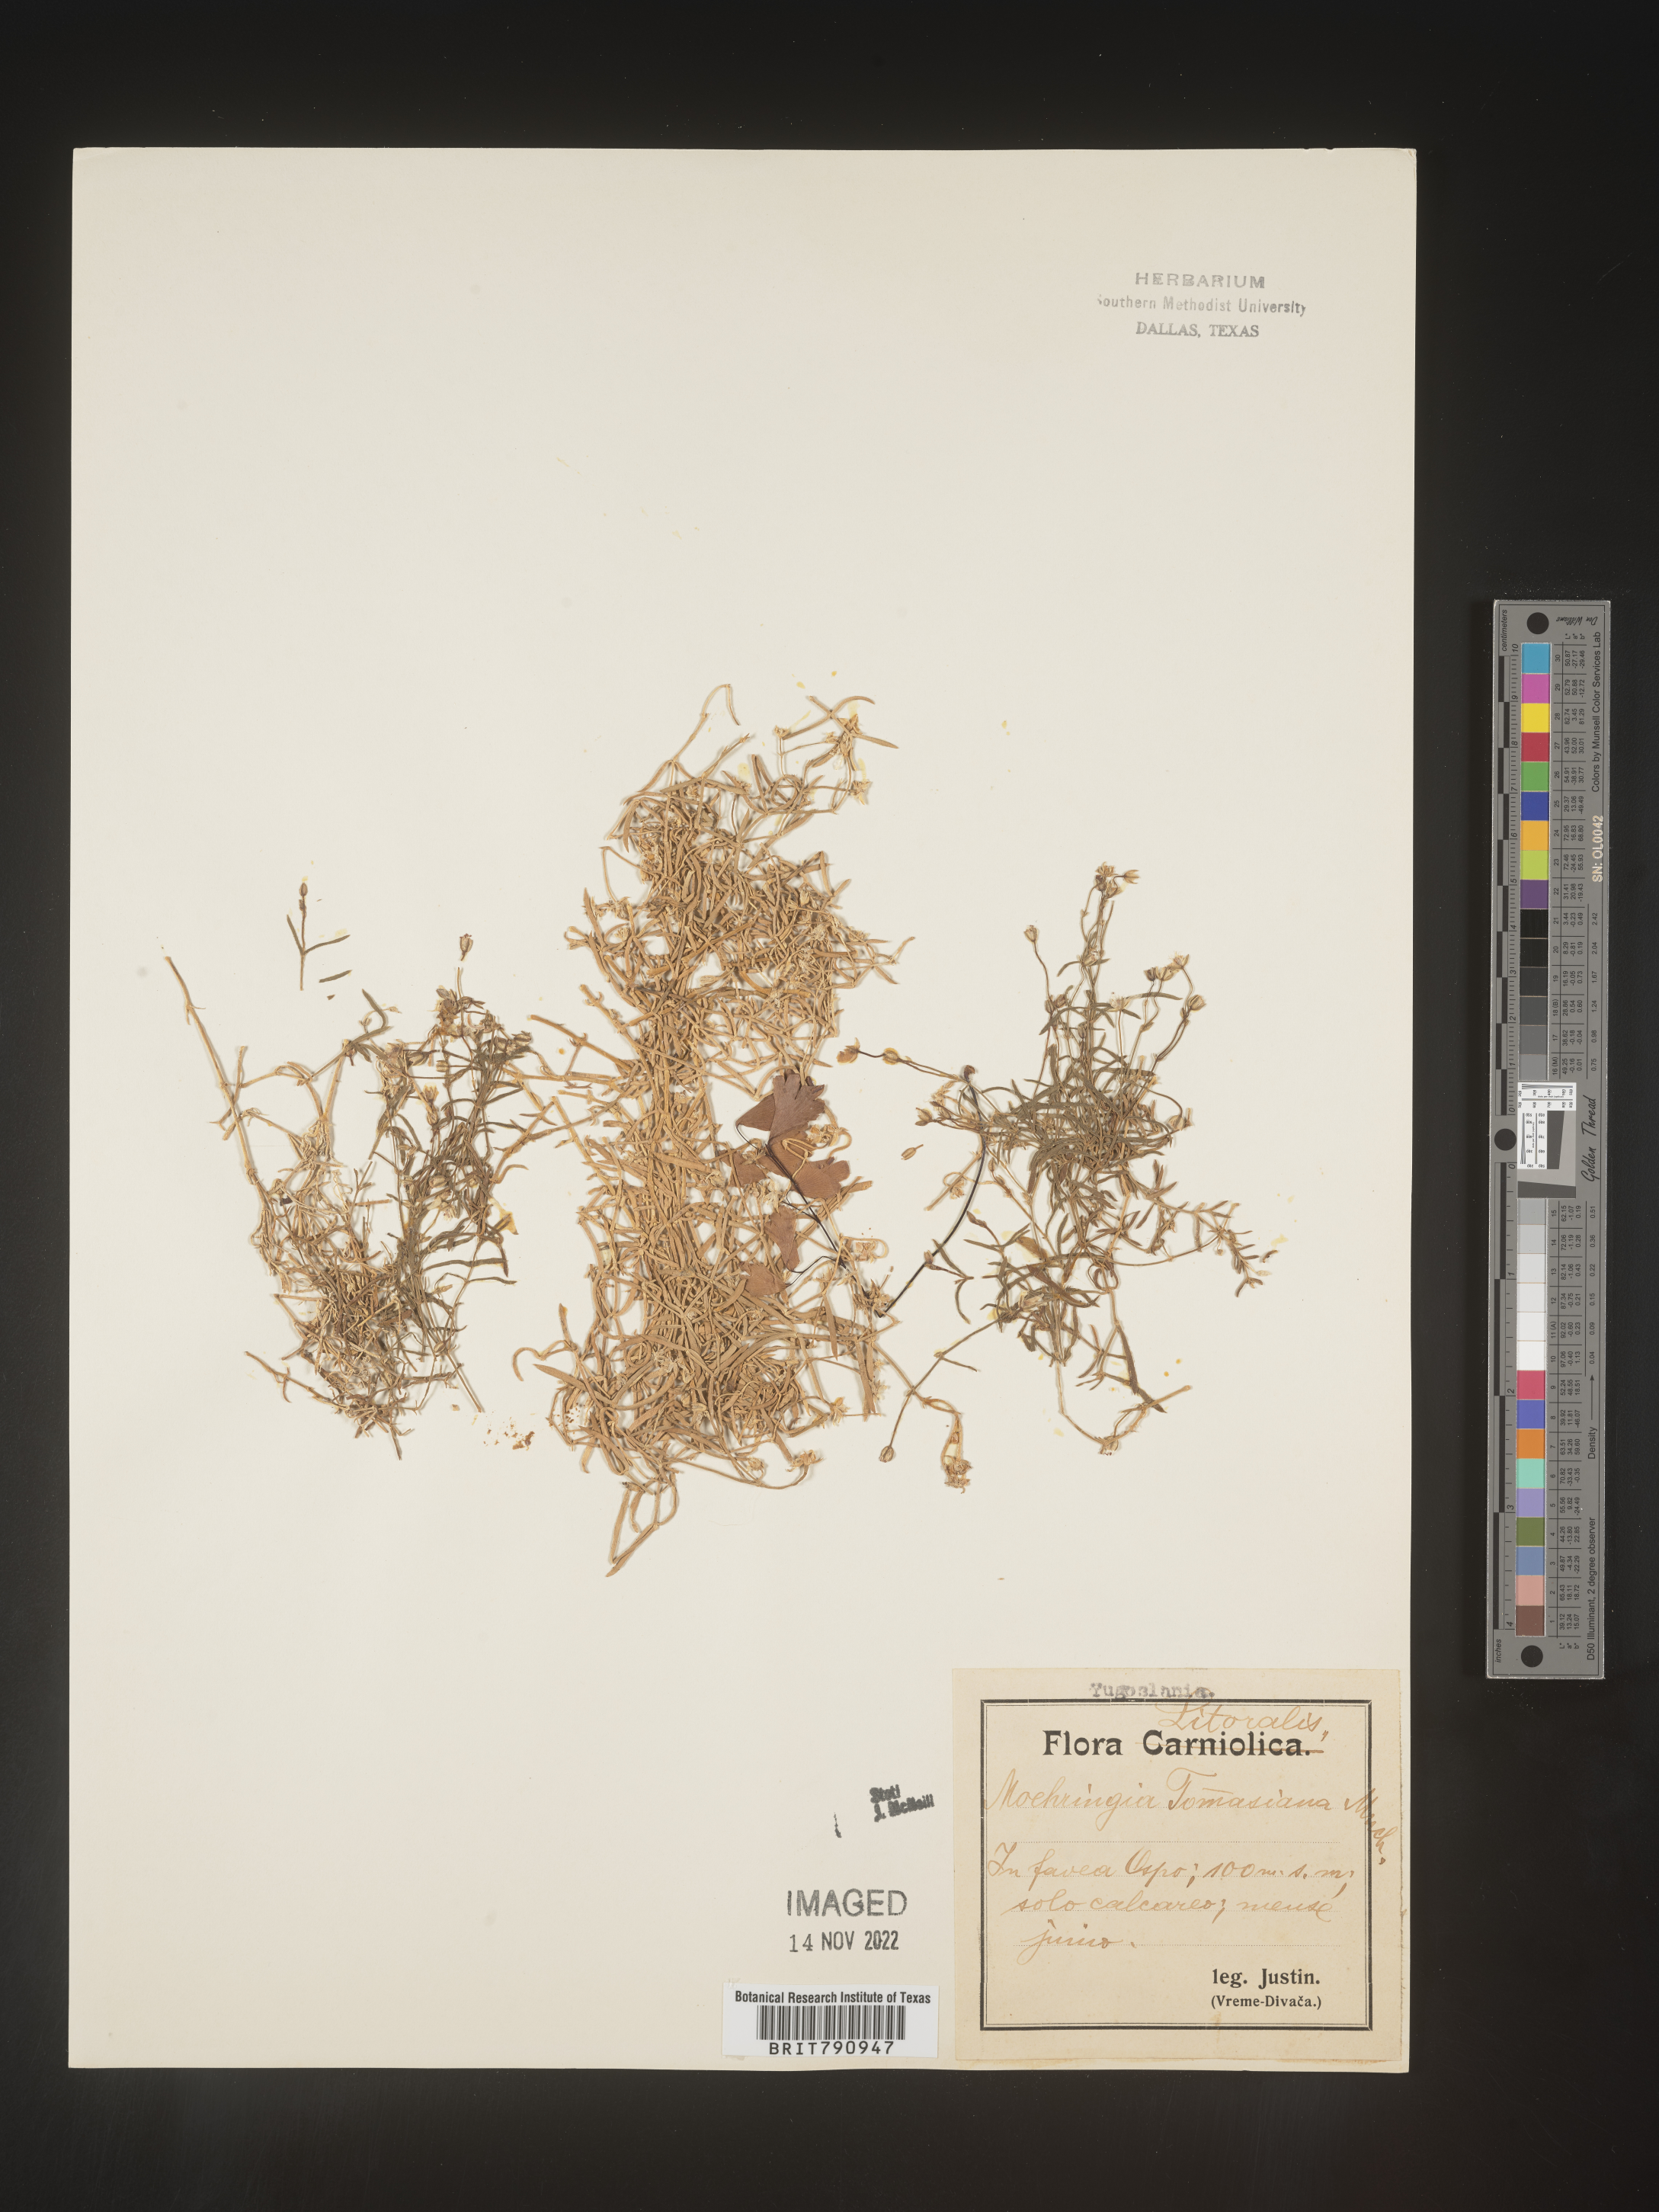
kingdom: Plantae
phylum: Tracheophyta
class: Magnoliopsida
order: Caryophyllales
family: Caryophyllaceae
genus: Moehringia
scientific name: Moehringia
